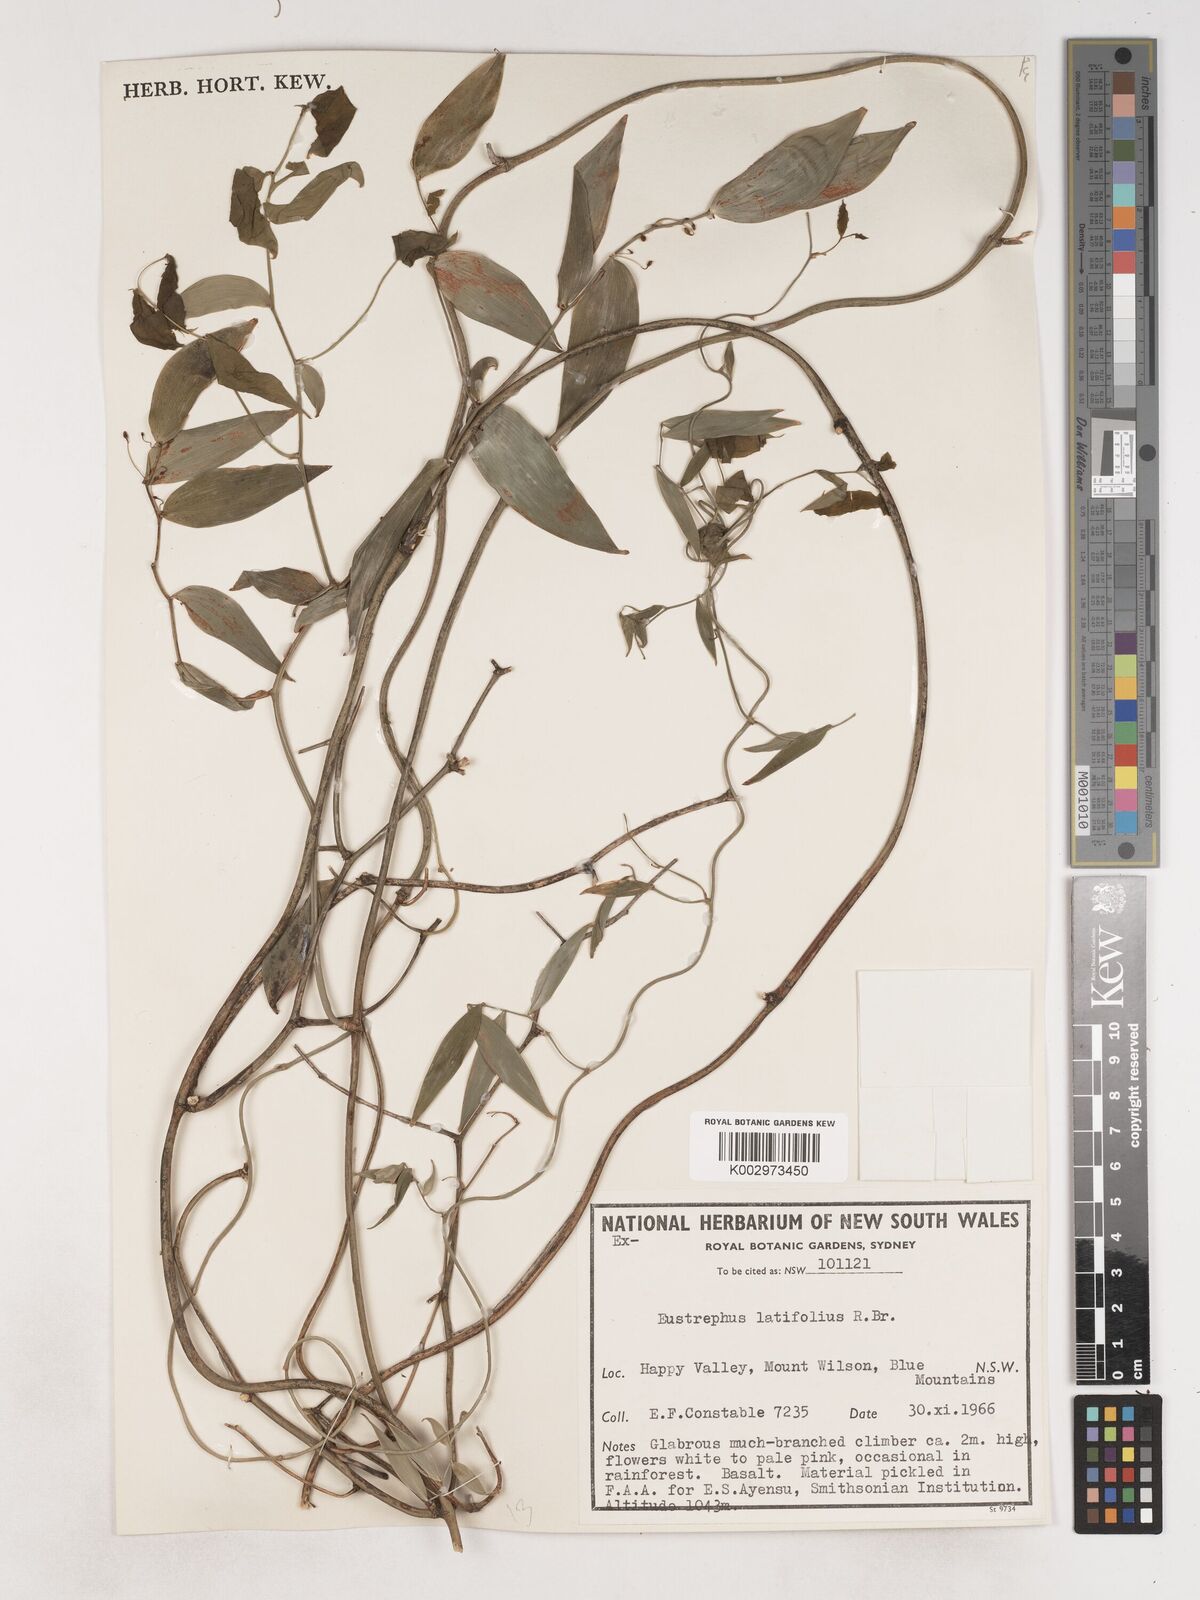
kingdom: Plantae
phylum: Tracheophyta
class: Liliopsida
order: Asparagales
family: Asparagaceae
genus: Eustrephus
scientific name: Eustrephus latifolius
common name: Orangevine
